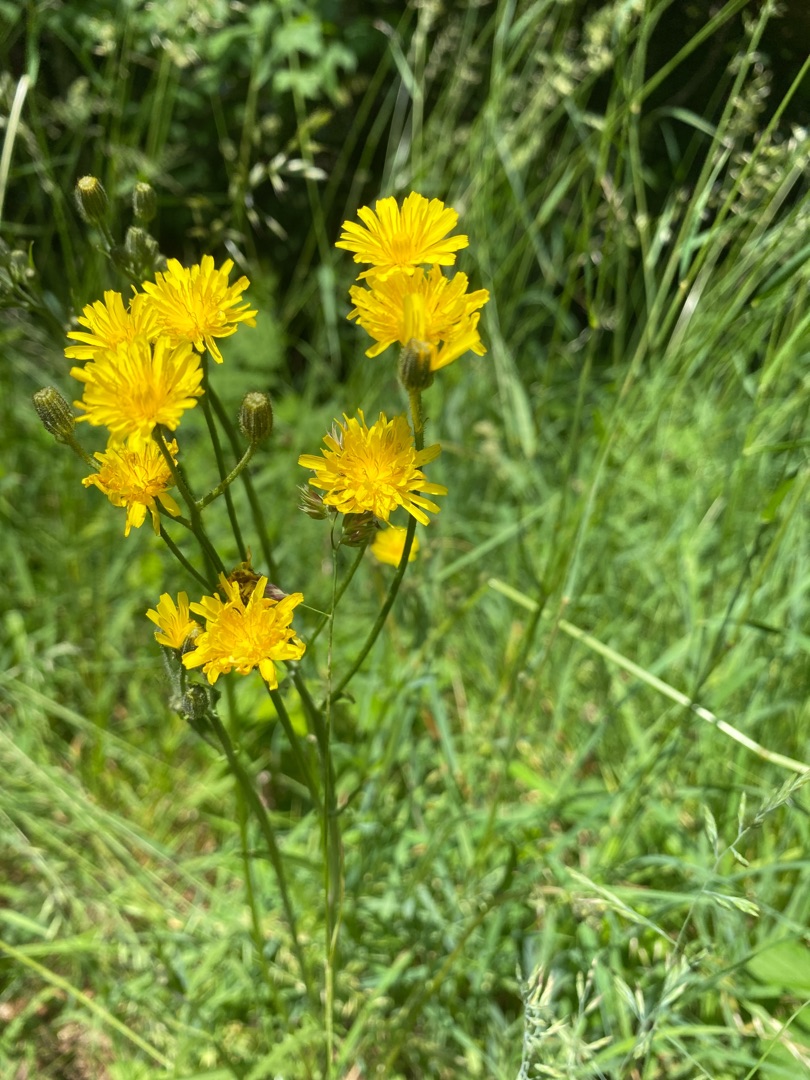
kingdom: Plantae
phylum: Tracheophyta
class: Magnoliopsida
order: Asterales
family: Asteraceae
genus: Crepis
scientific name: Crepis capillaris
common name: Grøn høgeskæg
